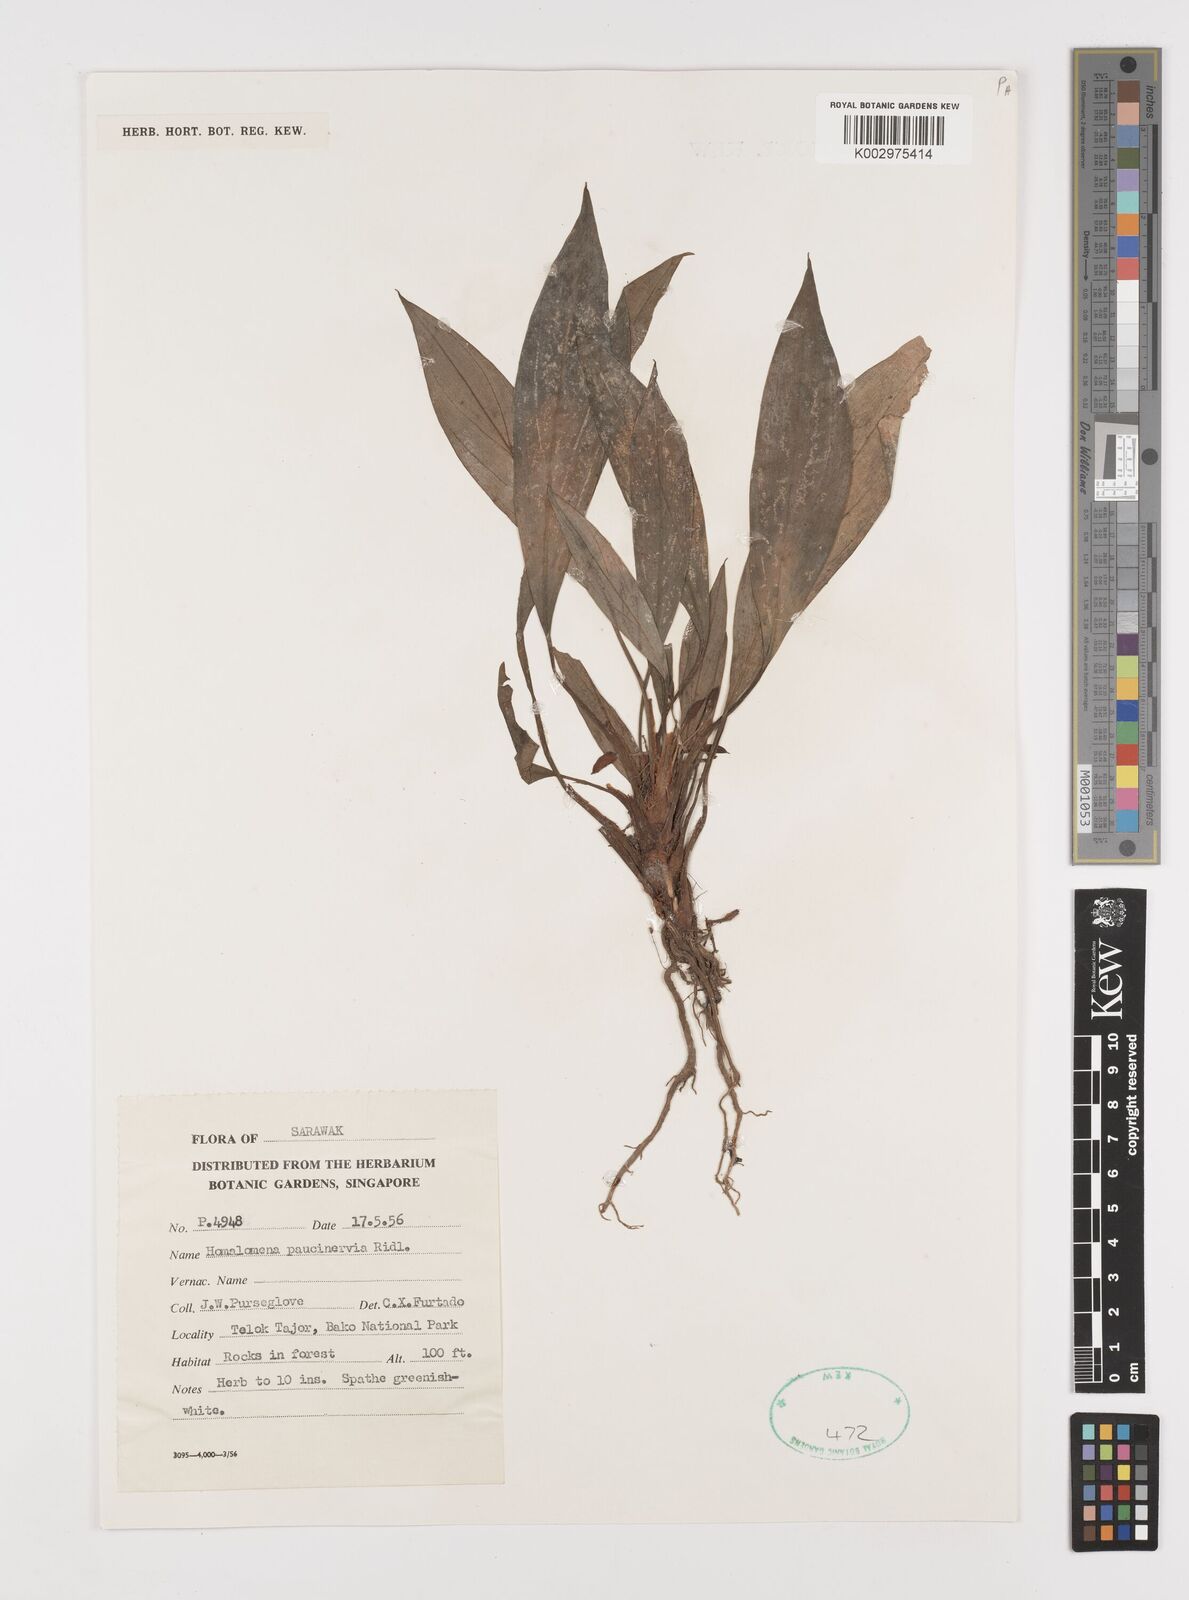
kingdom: Plantae
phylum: Tracheophyta
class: Liliopsida
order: Alismatales
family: Araceae
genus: Homalomena
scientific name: Homalomena consobrina
